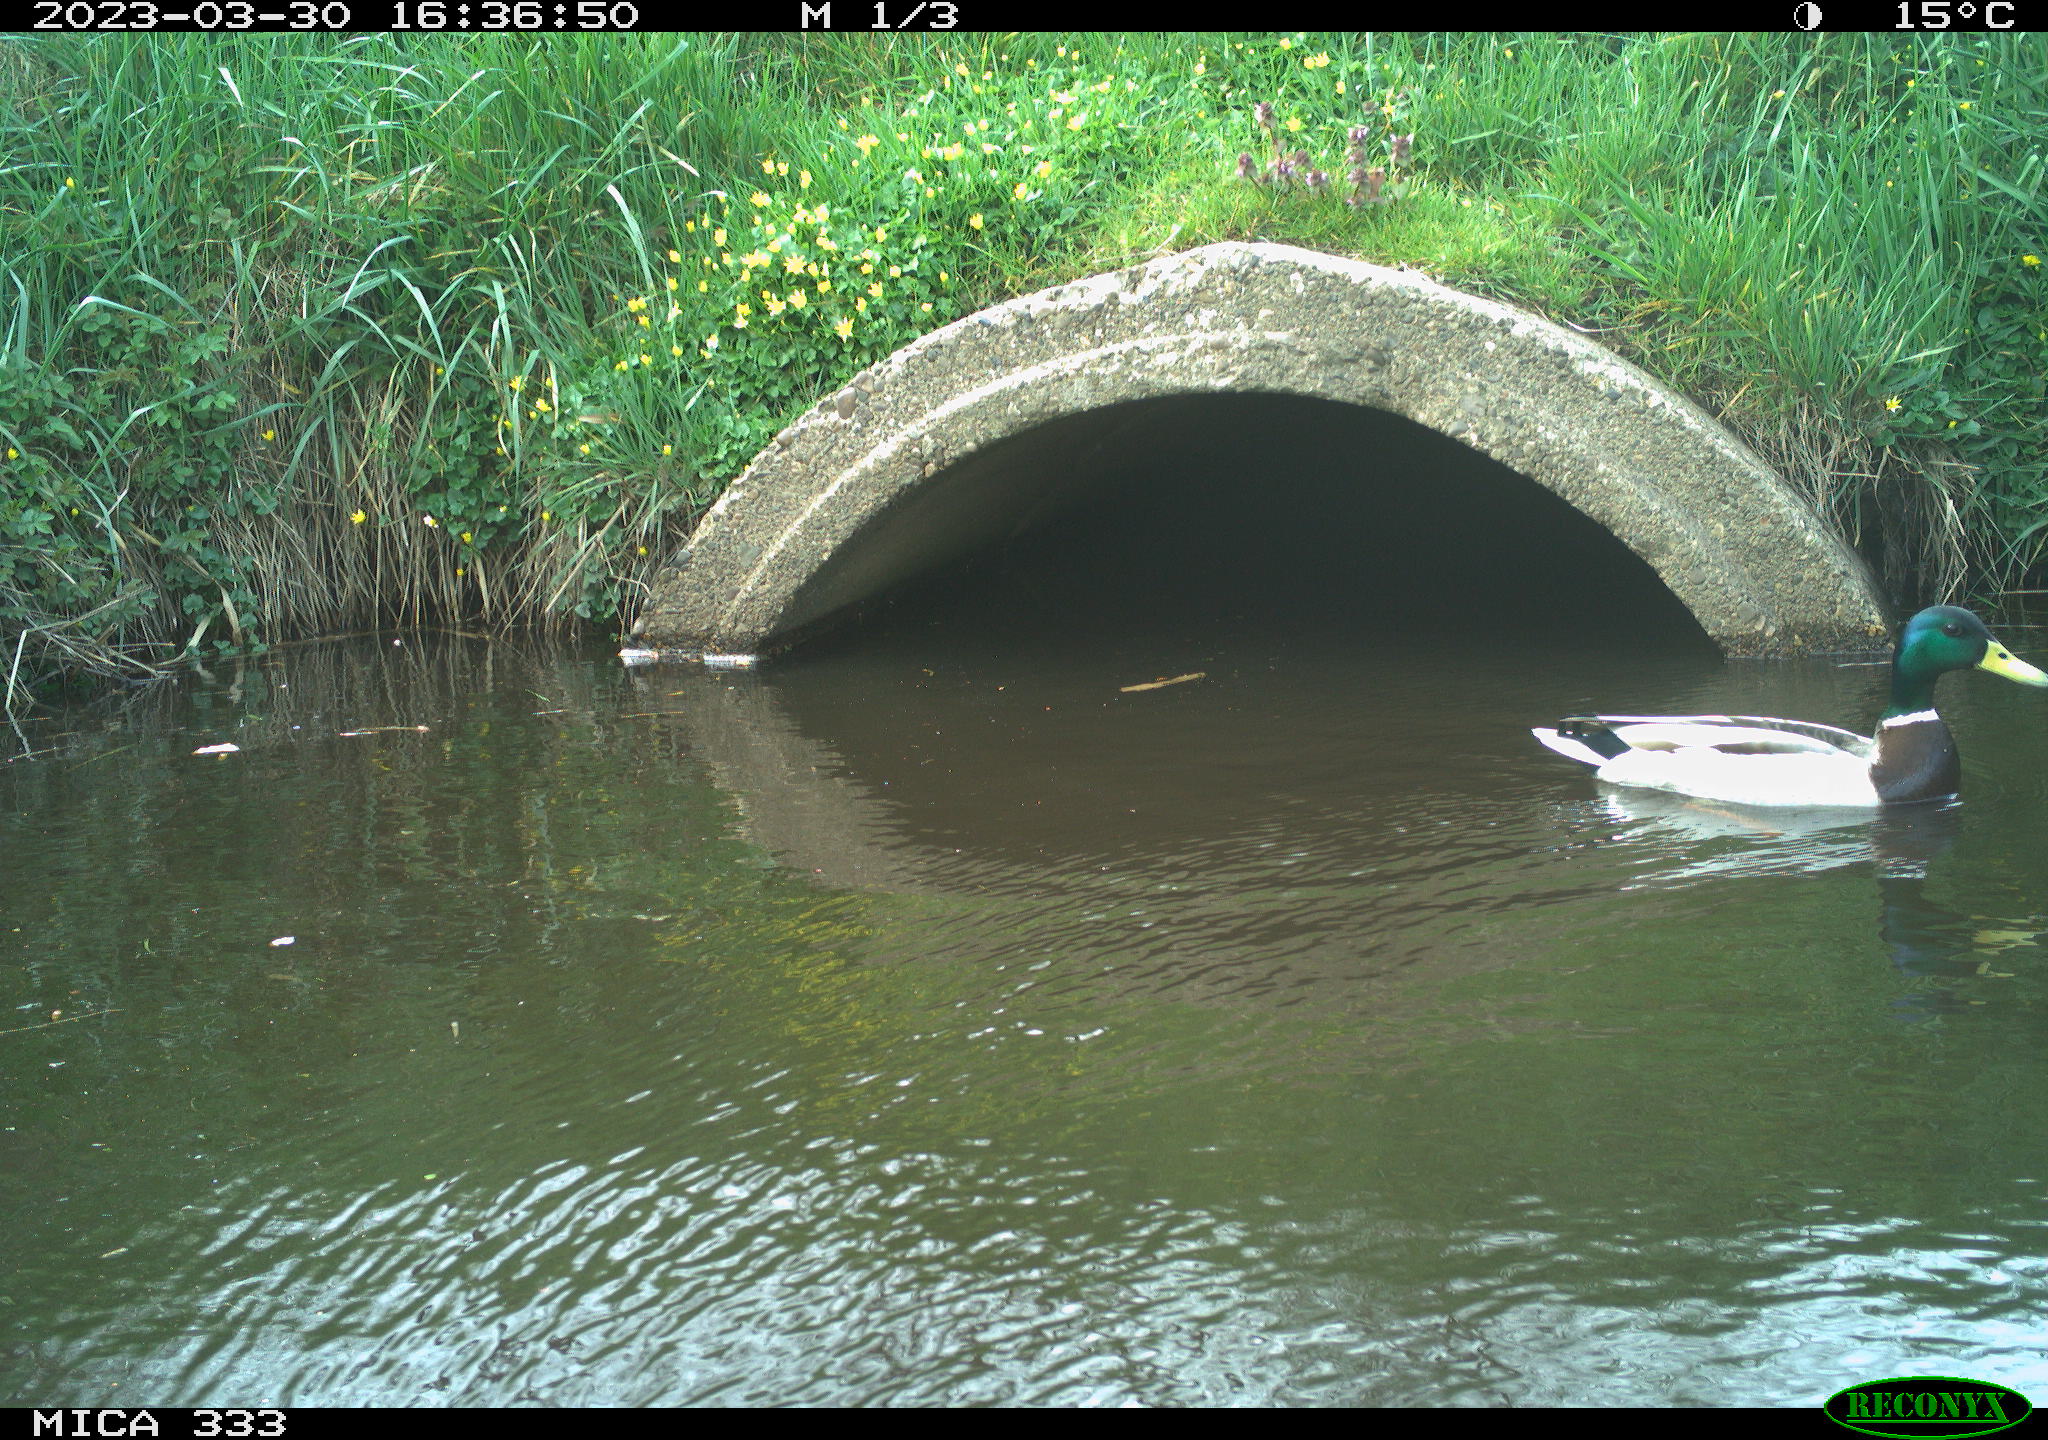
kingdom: Animalia
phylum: Chordata
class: Aves
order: Anseriformes
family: Anatidae
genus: Anas
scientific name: Anas
